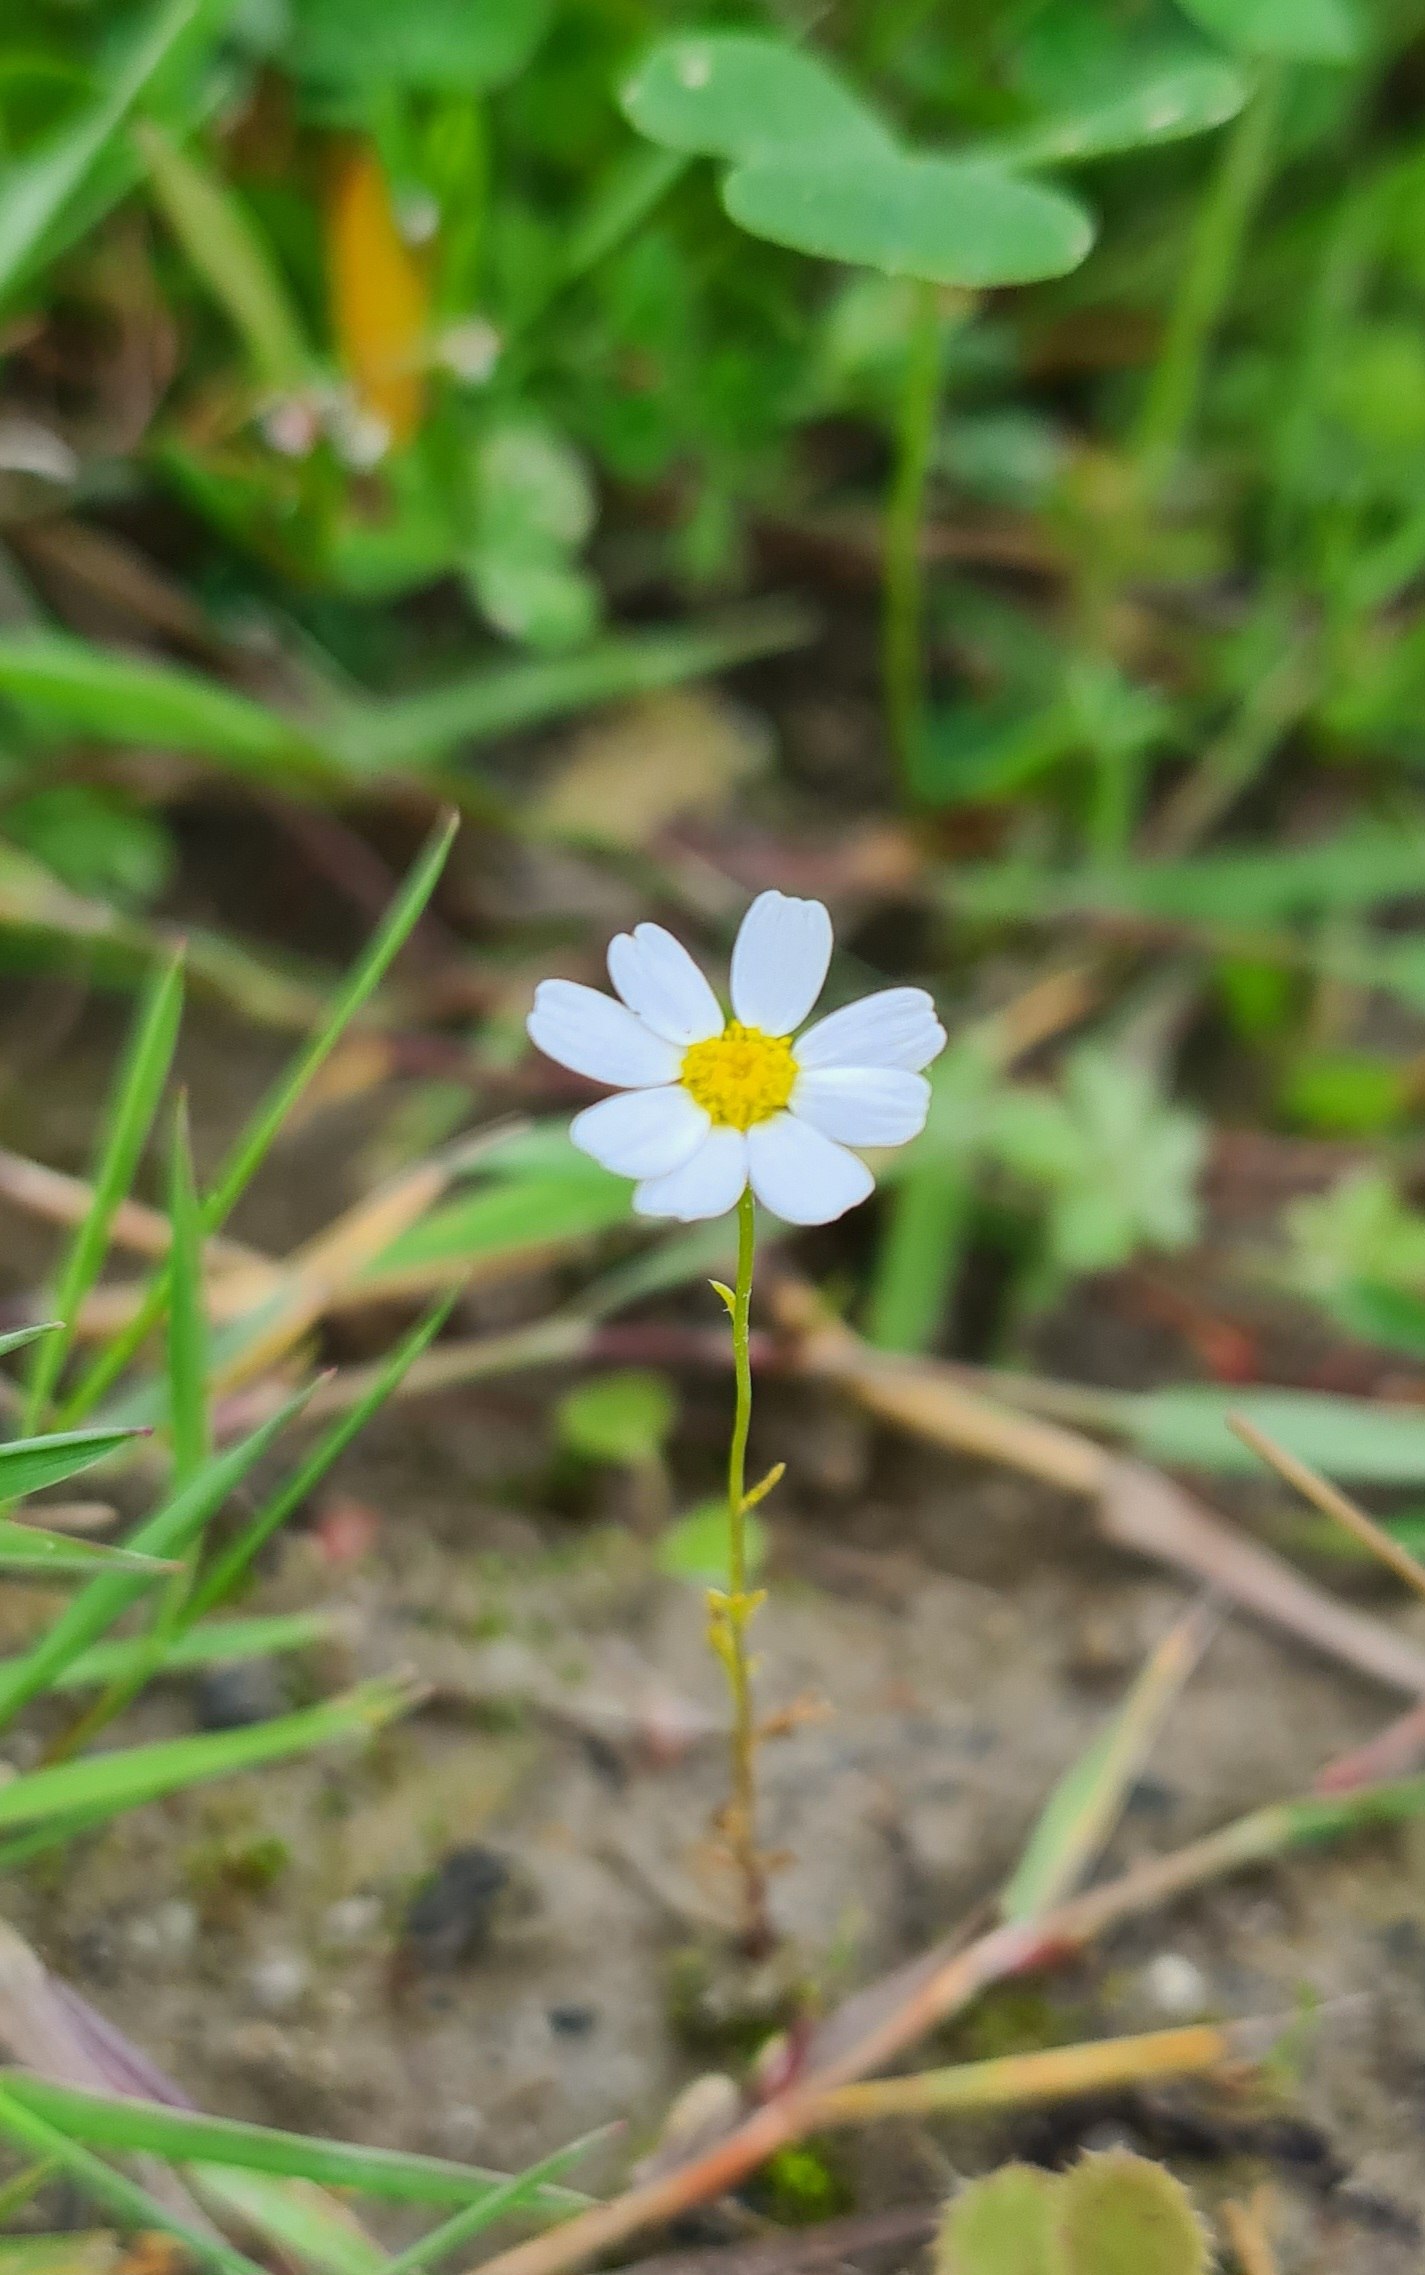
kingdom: Plantae
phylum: Tracheophyta
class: Magnoliopsida
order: Asterales
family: Asteraceae
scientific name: Asteraceae
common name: Kurvblomstfamilien
